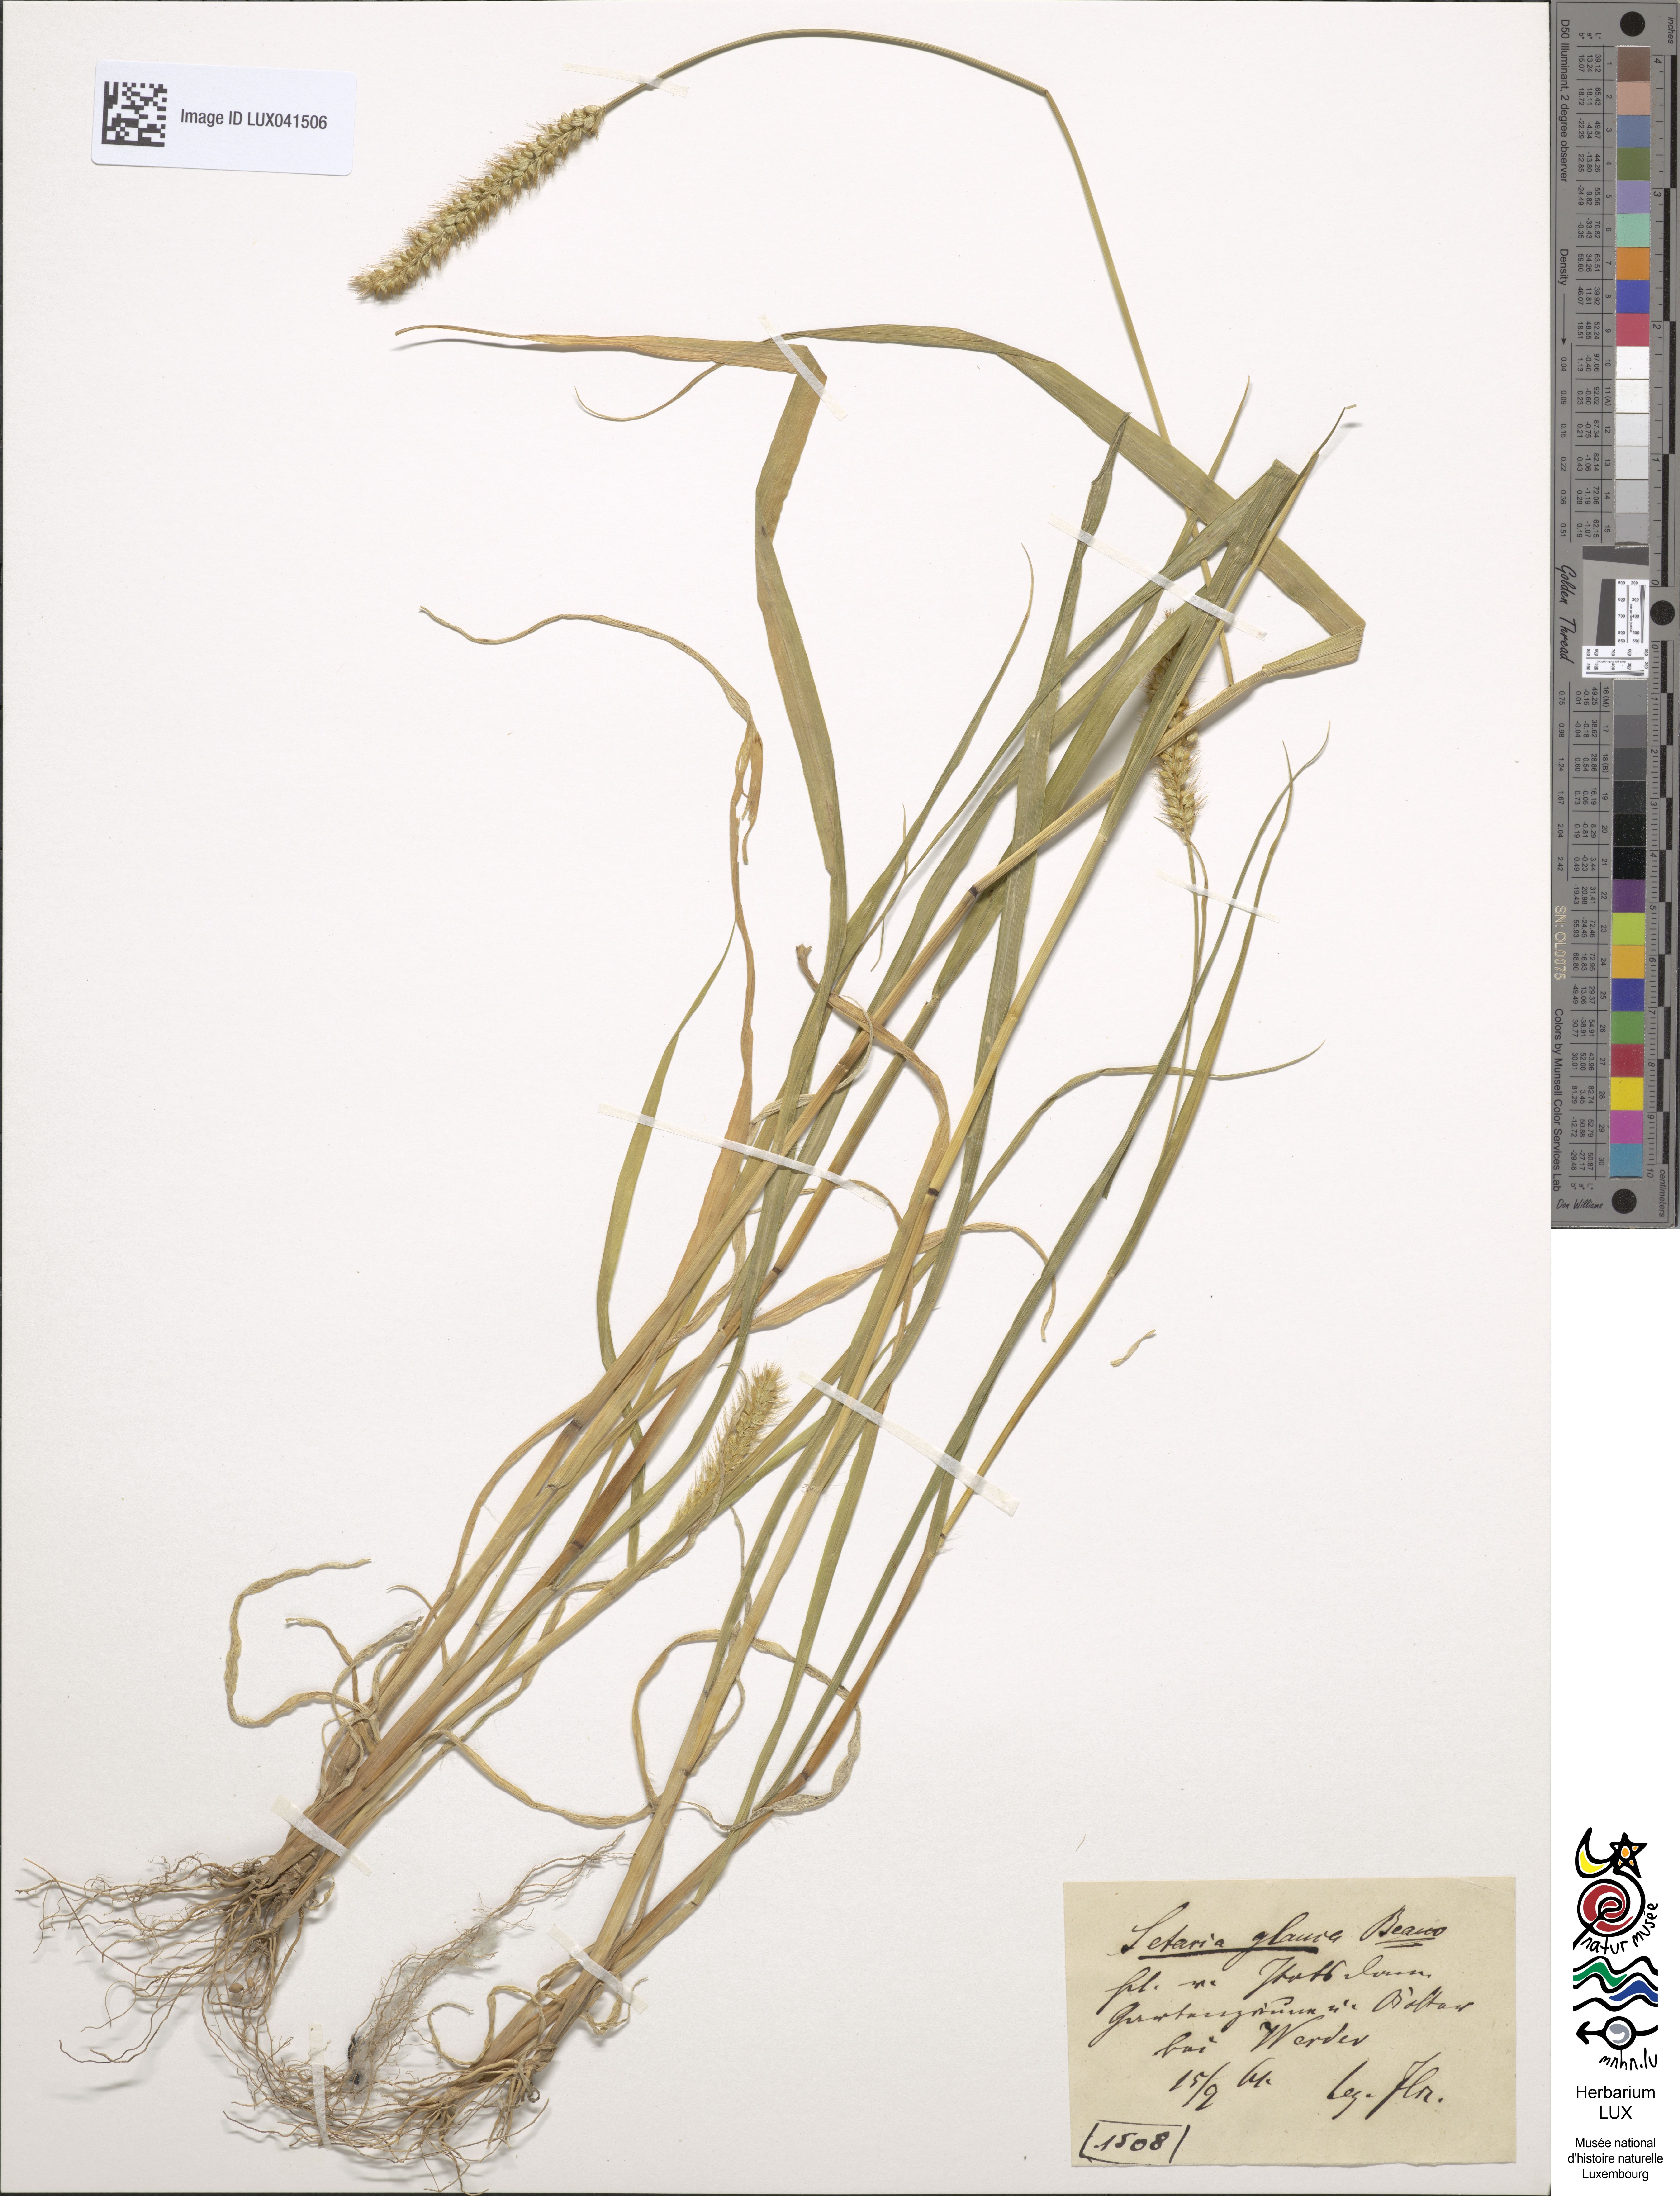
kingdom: Plantae
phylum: Tracheophyta
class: Liliopsida
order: Poales
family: Poaceae
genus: Cenchrus
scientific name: Cenchrus americanus
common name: Pearl millet
